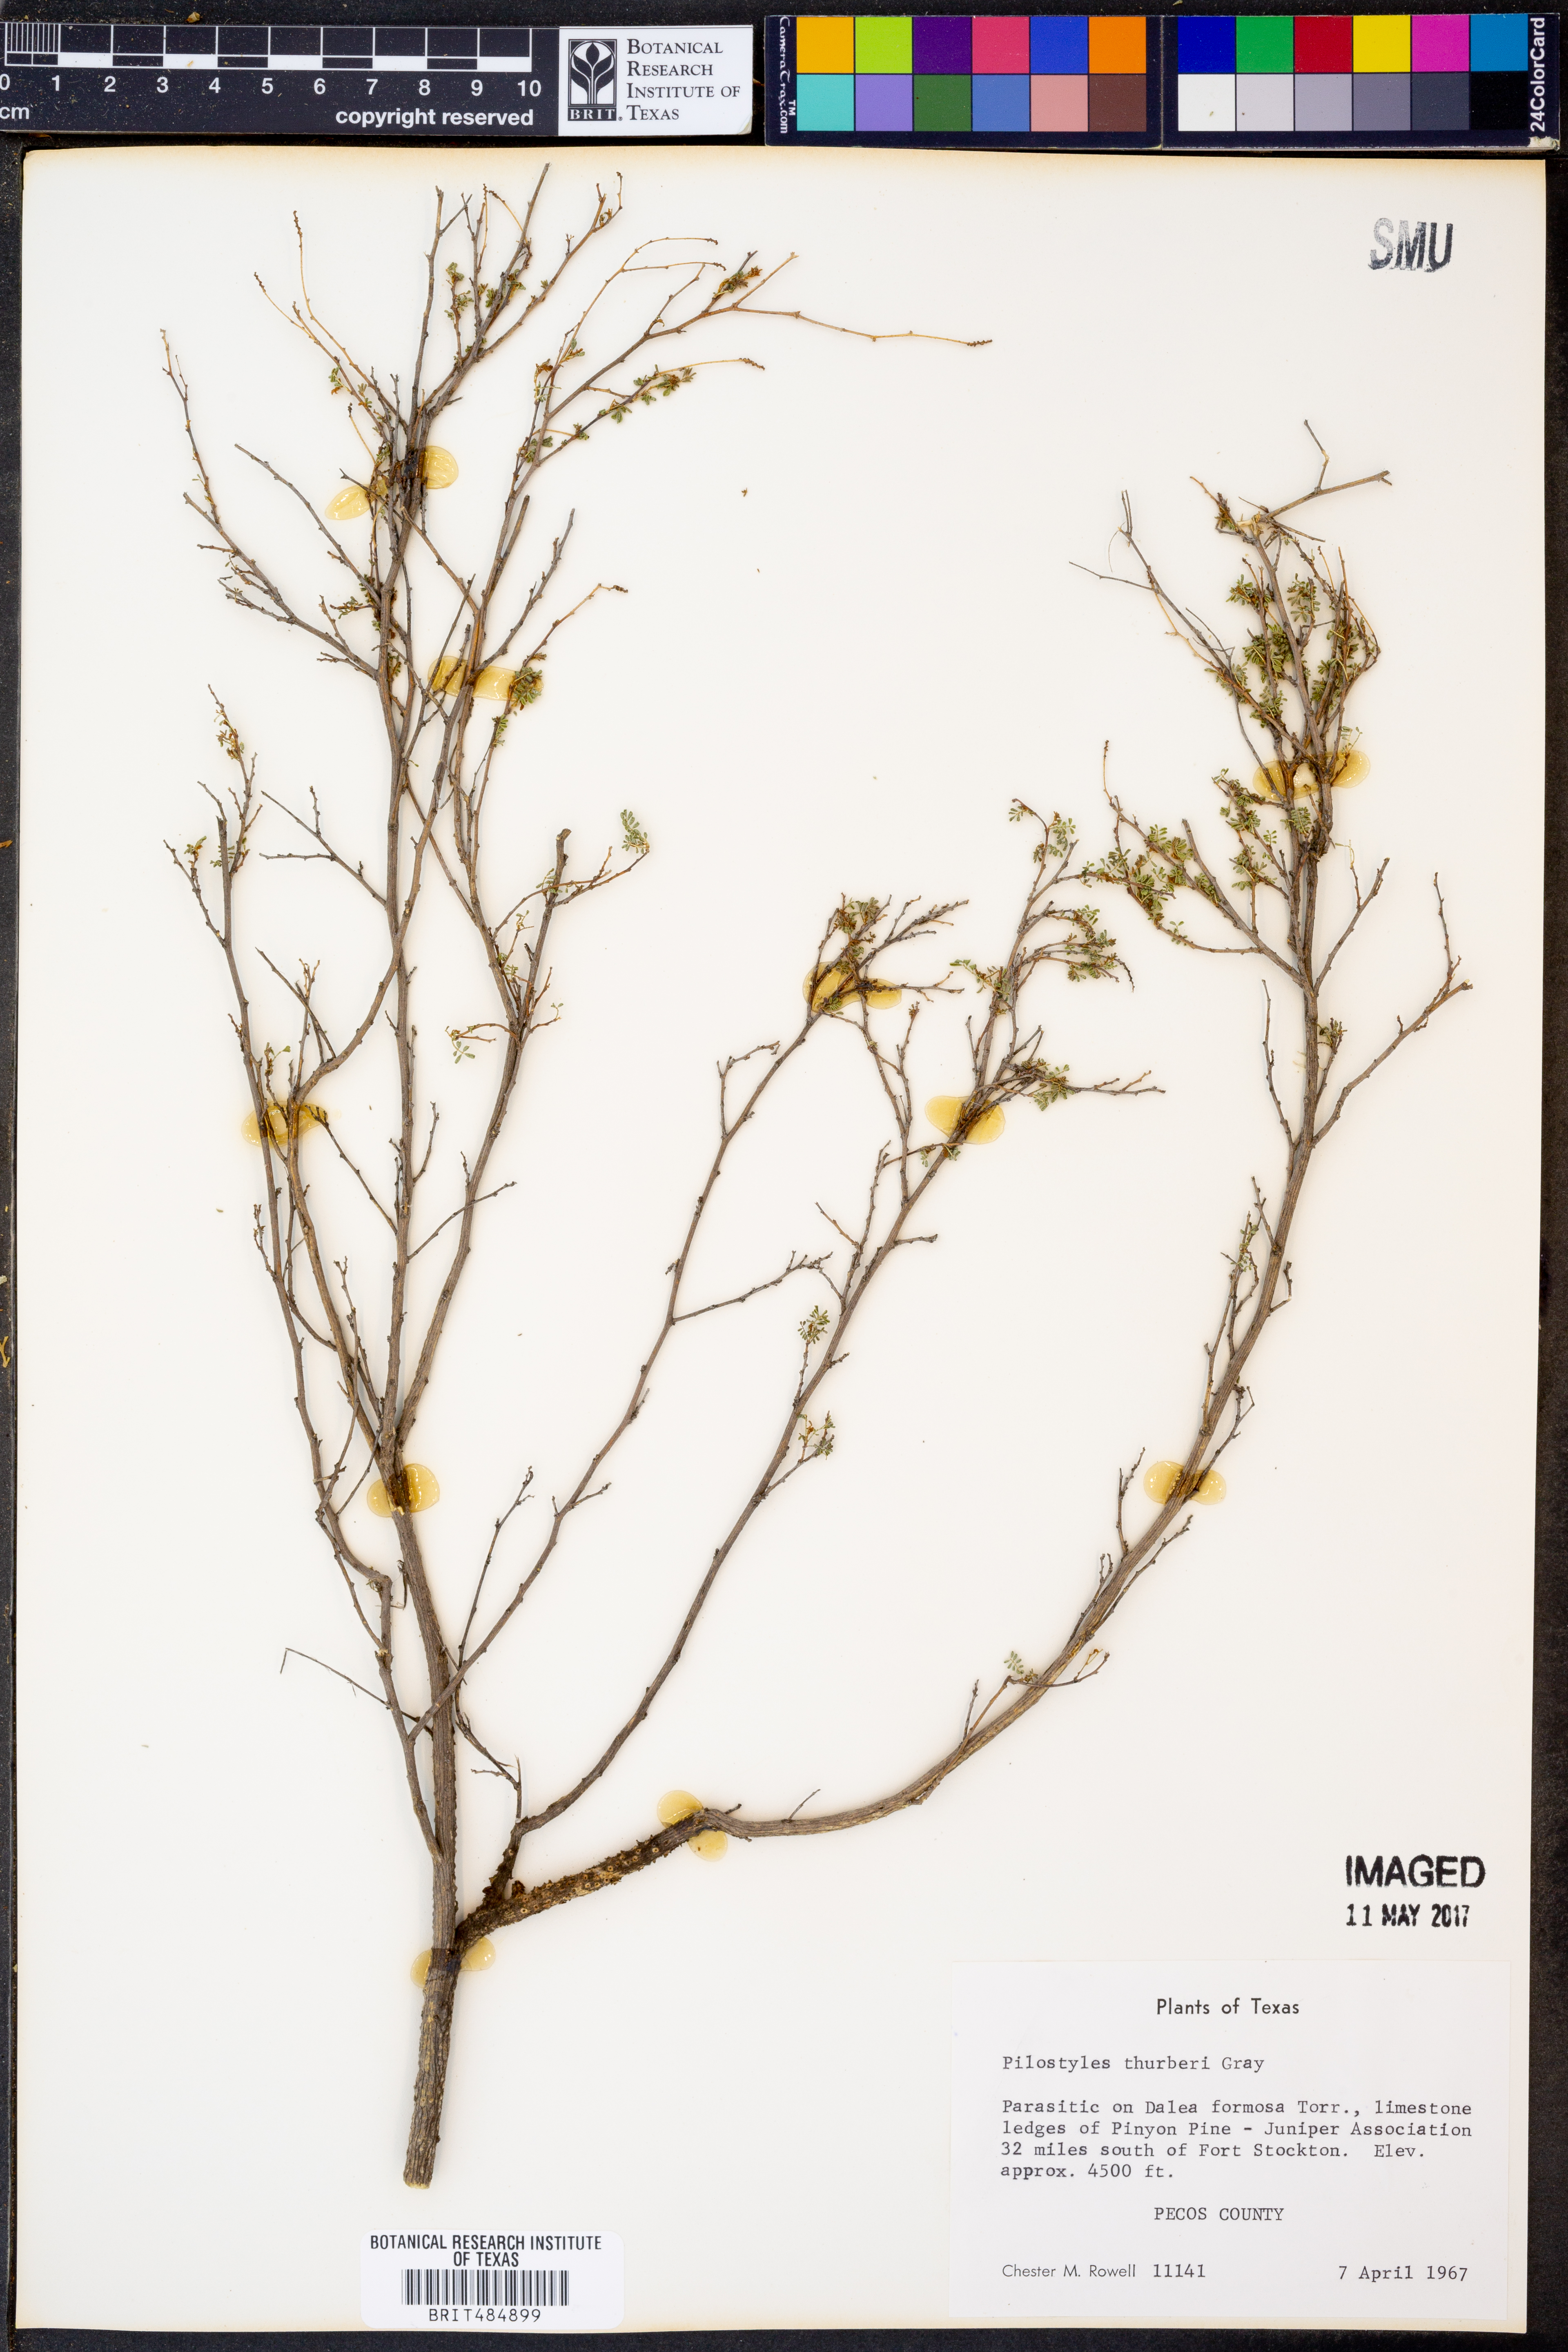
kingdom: Plantae
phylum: Tracheophyta
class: Magnoliopsida
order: Cucurbitales
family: Apodanthaceae
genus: Pilostyles
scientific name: Pilostyles thurberi
